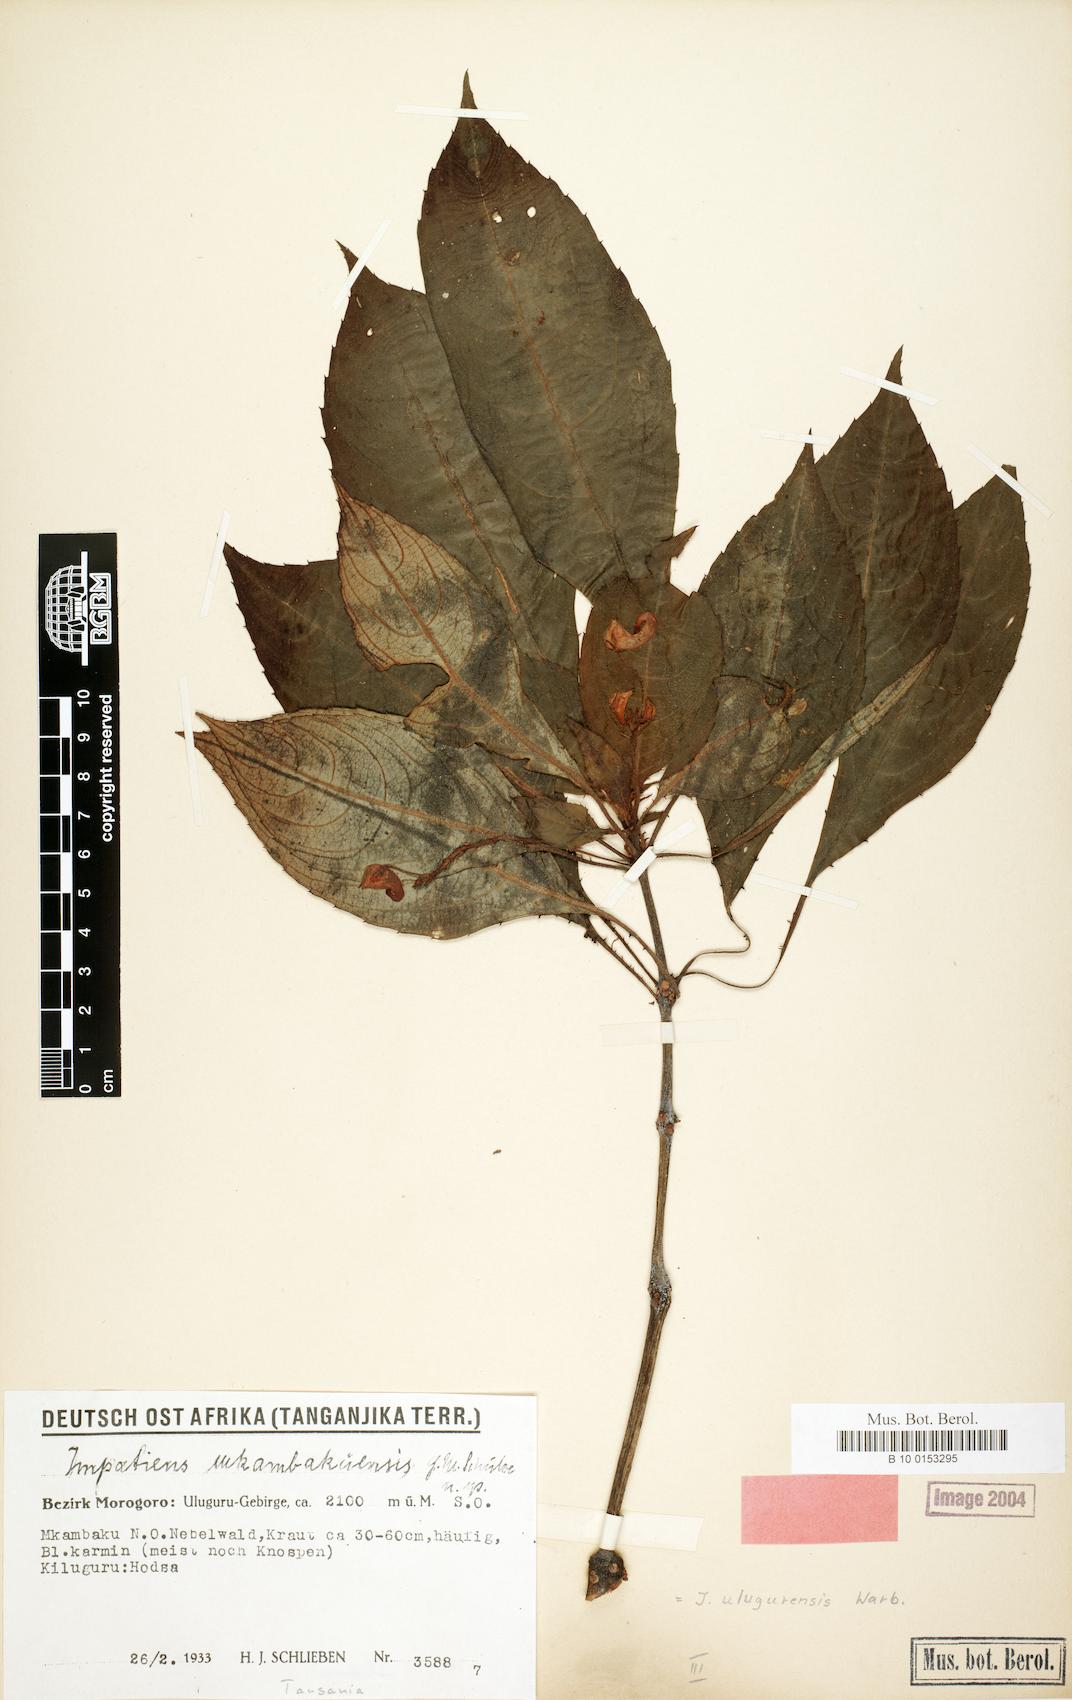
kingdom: Plantae
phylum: Tracheophyta
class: Magnoliopsida
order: Ericales
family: Balsaminaceae
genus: Impatiens
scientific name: Impatiens ulugurensis
